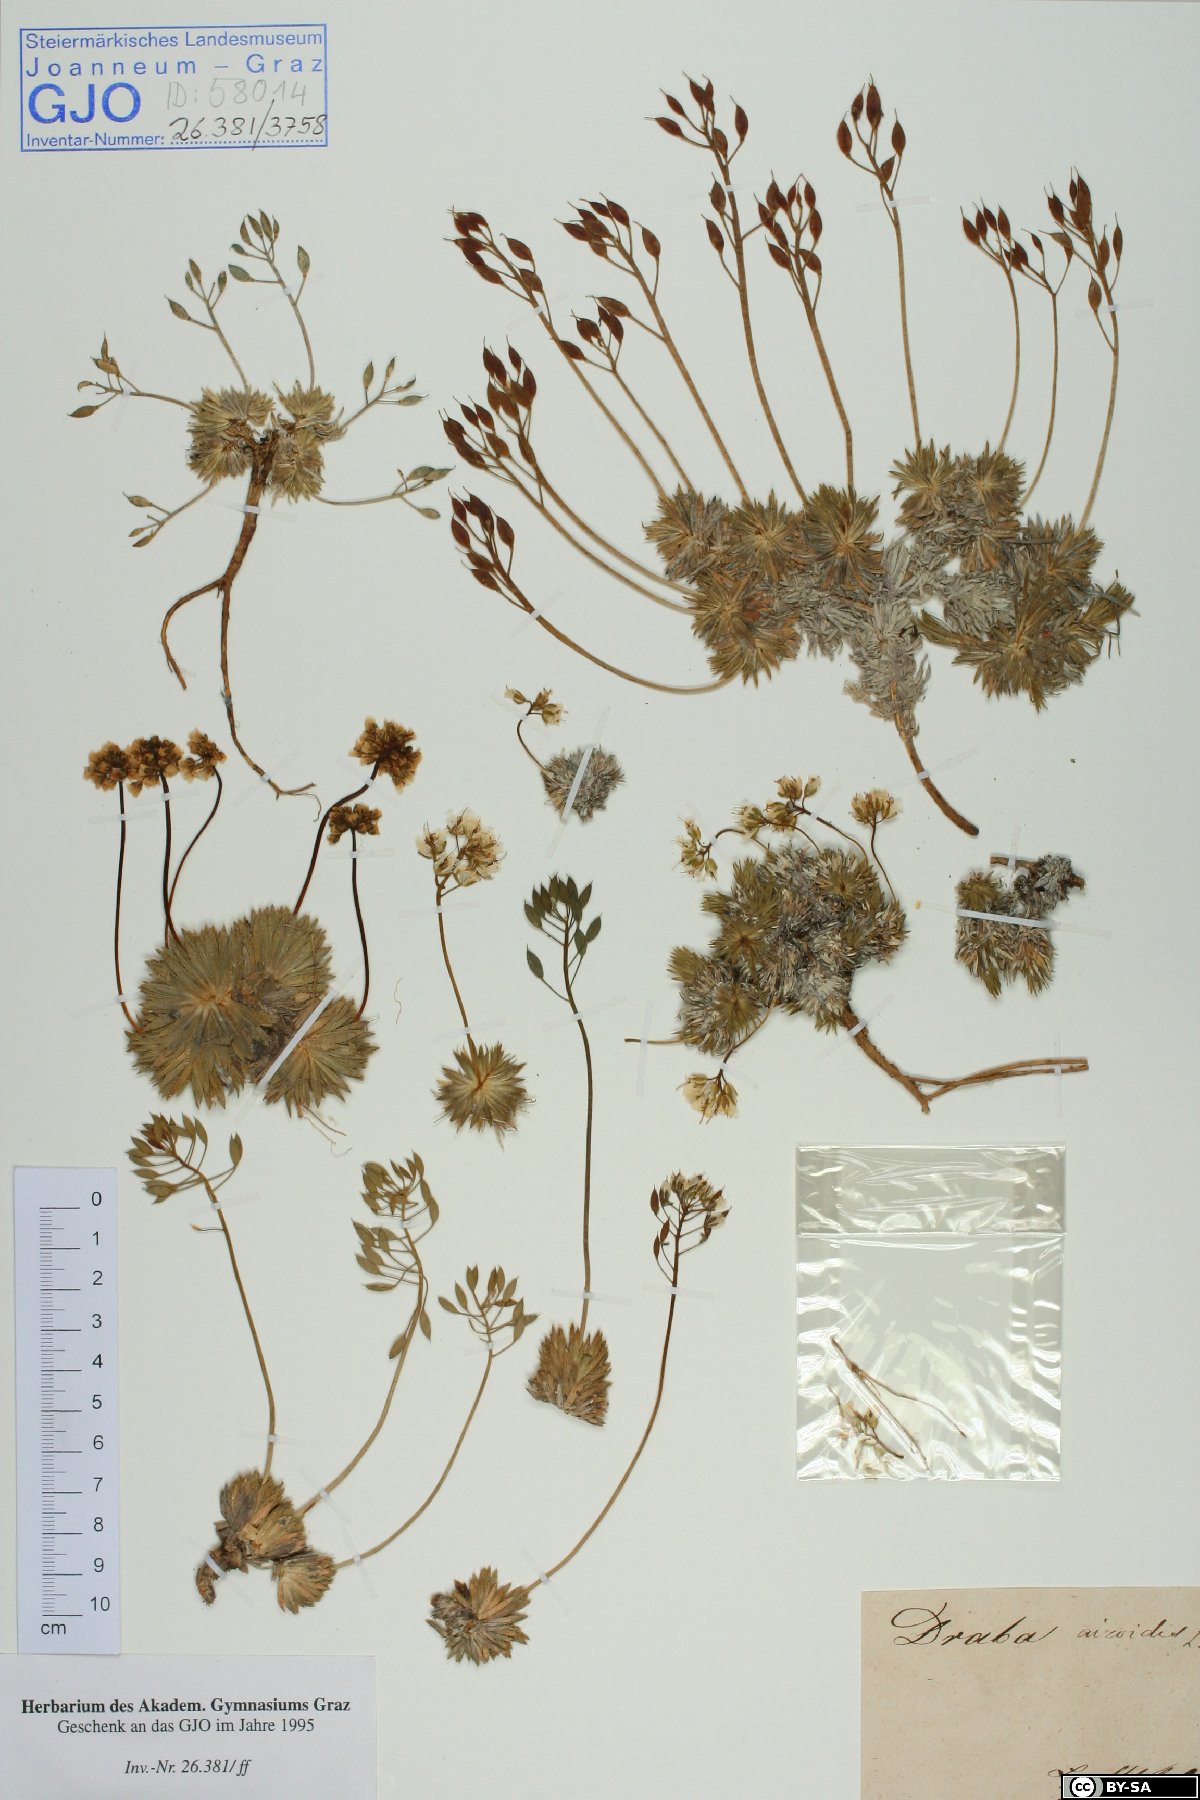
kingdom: Plantae
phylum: Tracheophyta
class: Magnoliopsida
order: Brassicales
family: Brassicaceae
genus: Draba
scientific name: Draba aizoides
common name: Yellow whitlowgrass
